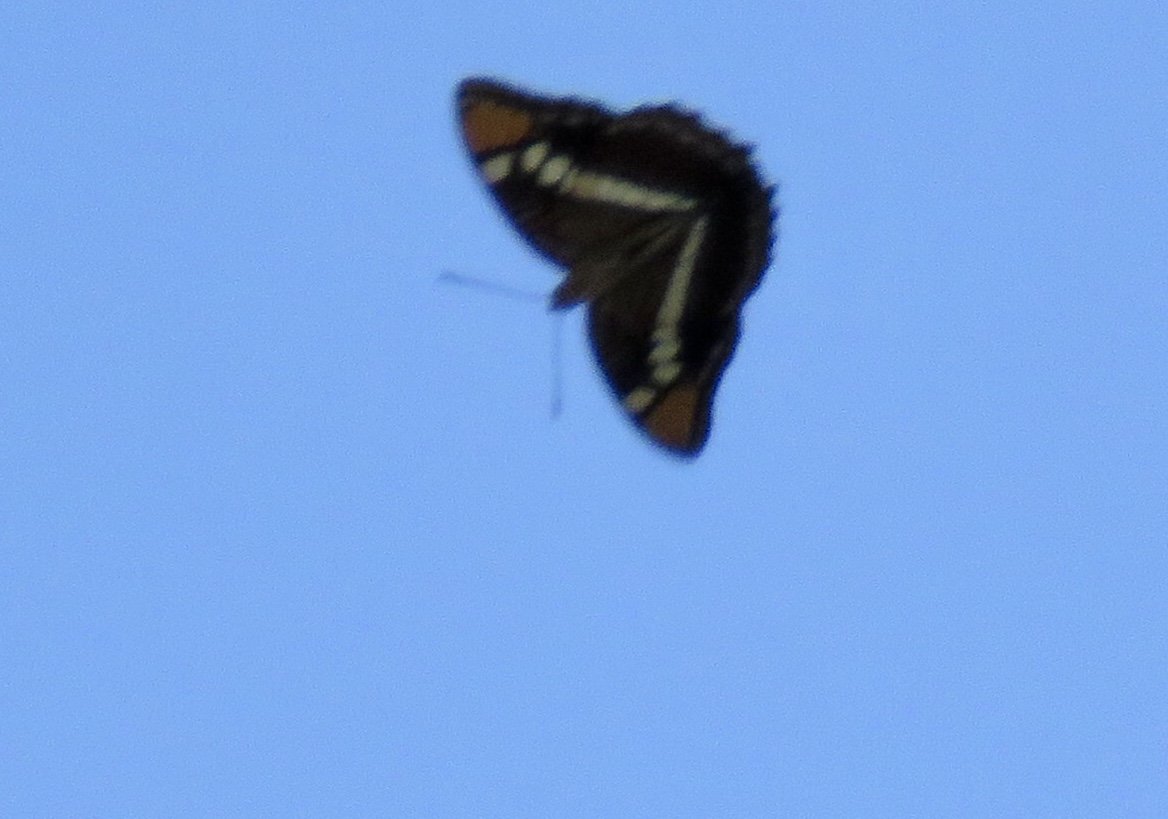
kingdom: Animalia
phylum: Arthropoda
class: Insecta
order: Lepidoptera
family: Nymphalidae
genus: Limenitis
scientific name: Limenitis bredowii
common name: Arizona Sister
